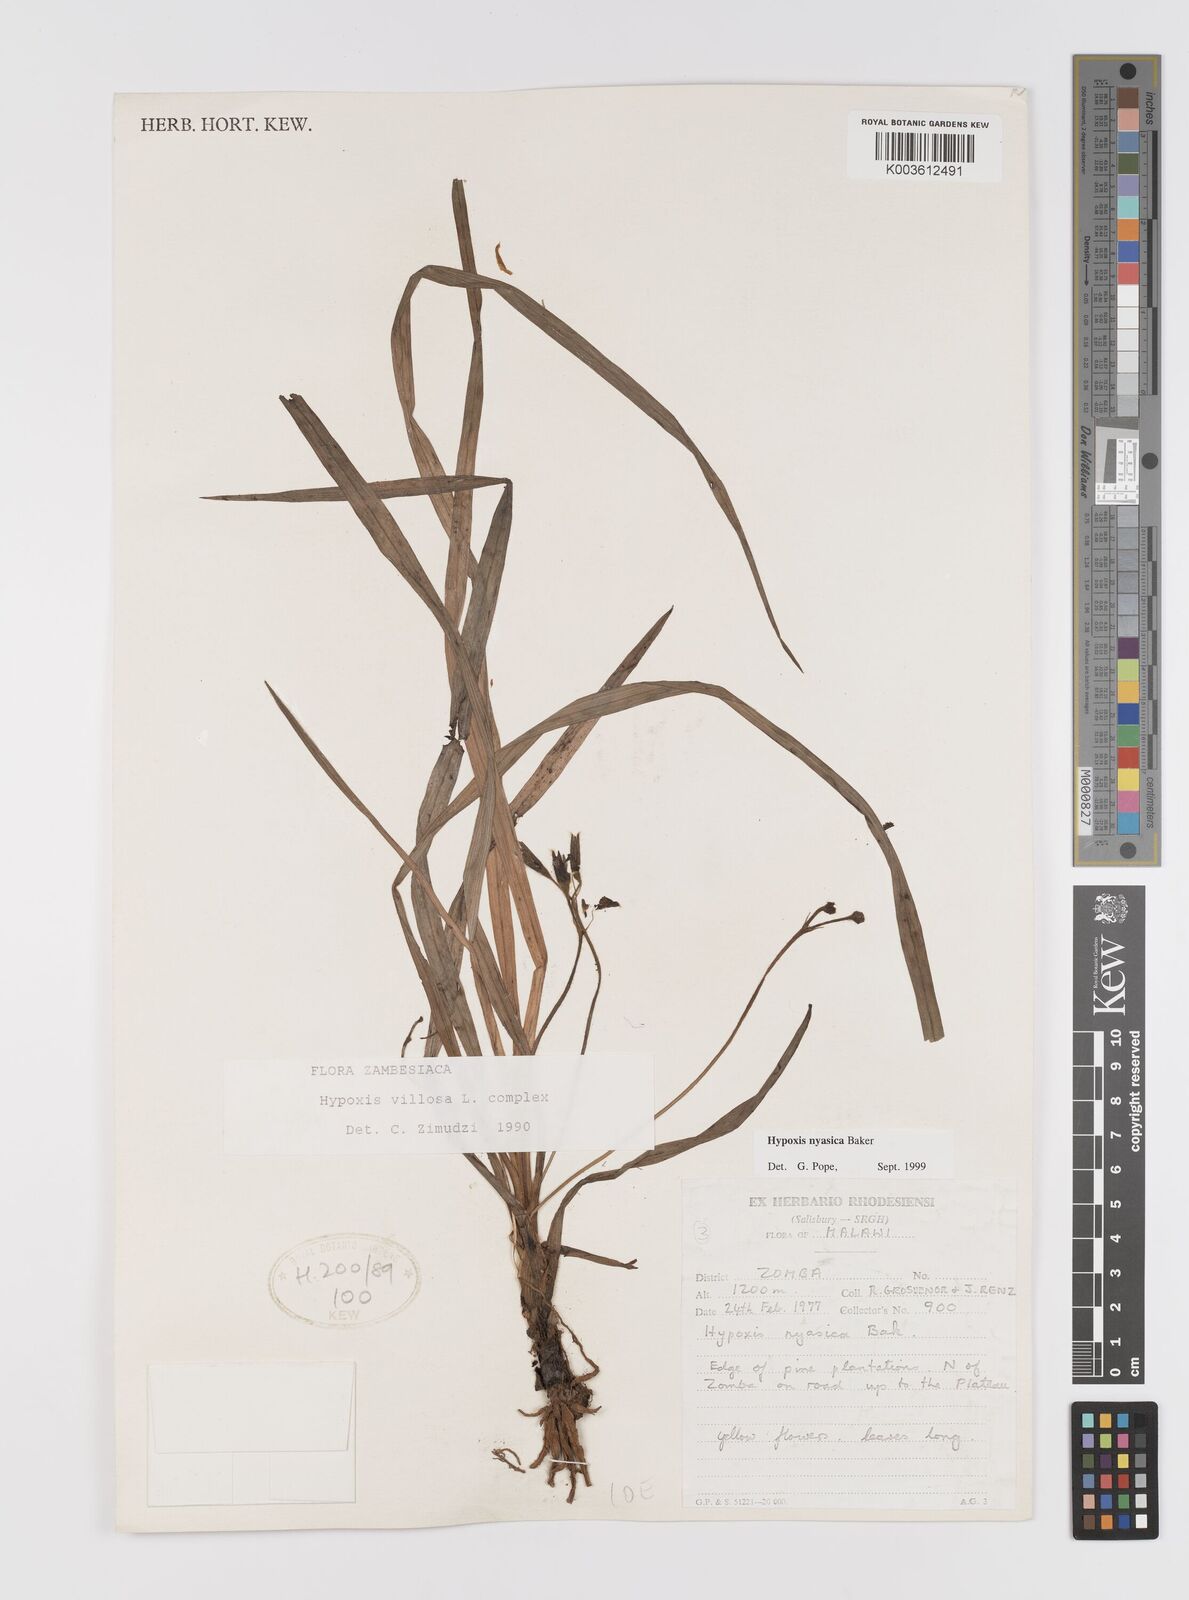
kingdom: Plantae
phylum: Tracheophyta
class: Liliopsida
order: Asparagales
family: Hypoxidaceae
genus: Hypoxis
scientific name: Hypoxis nyasica
